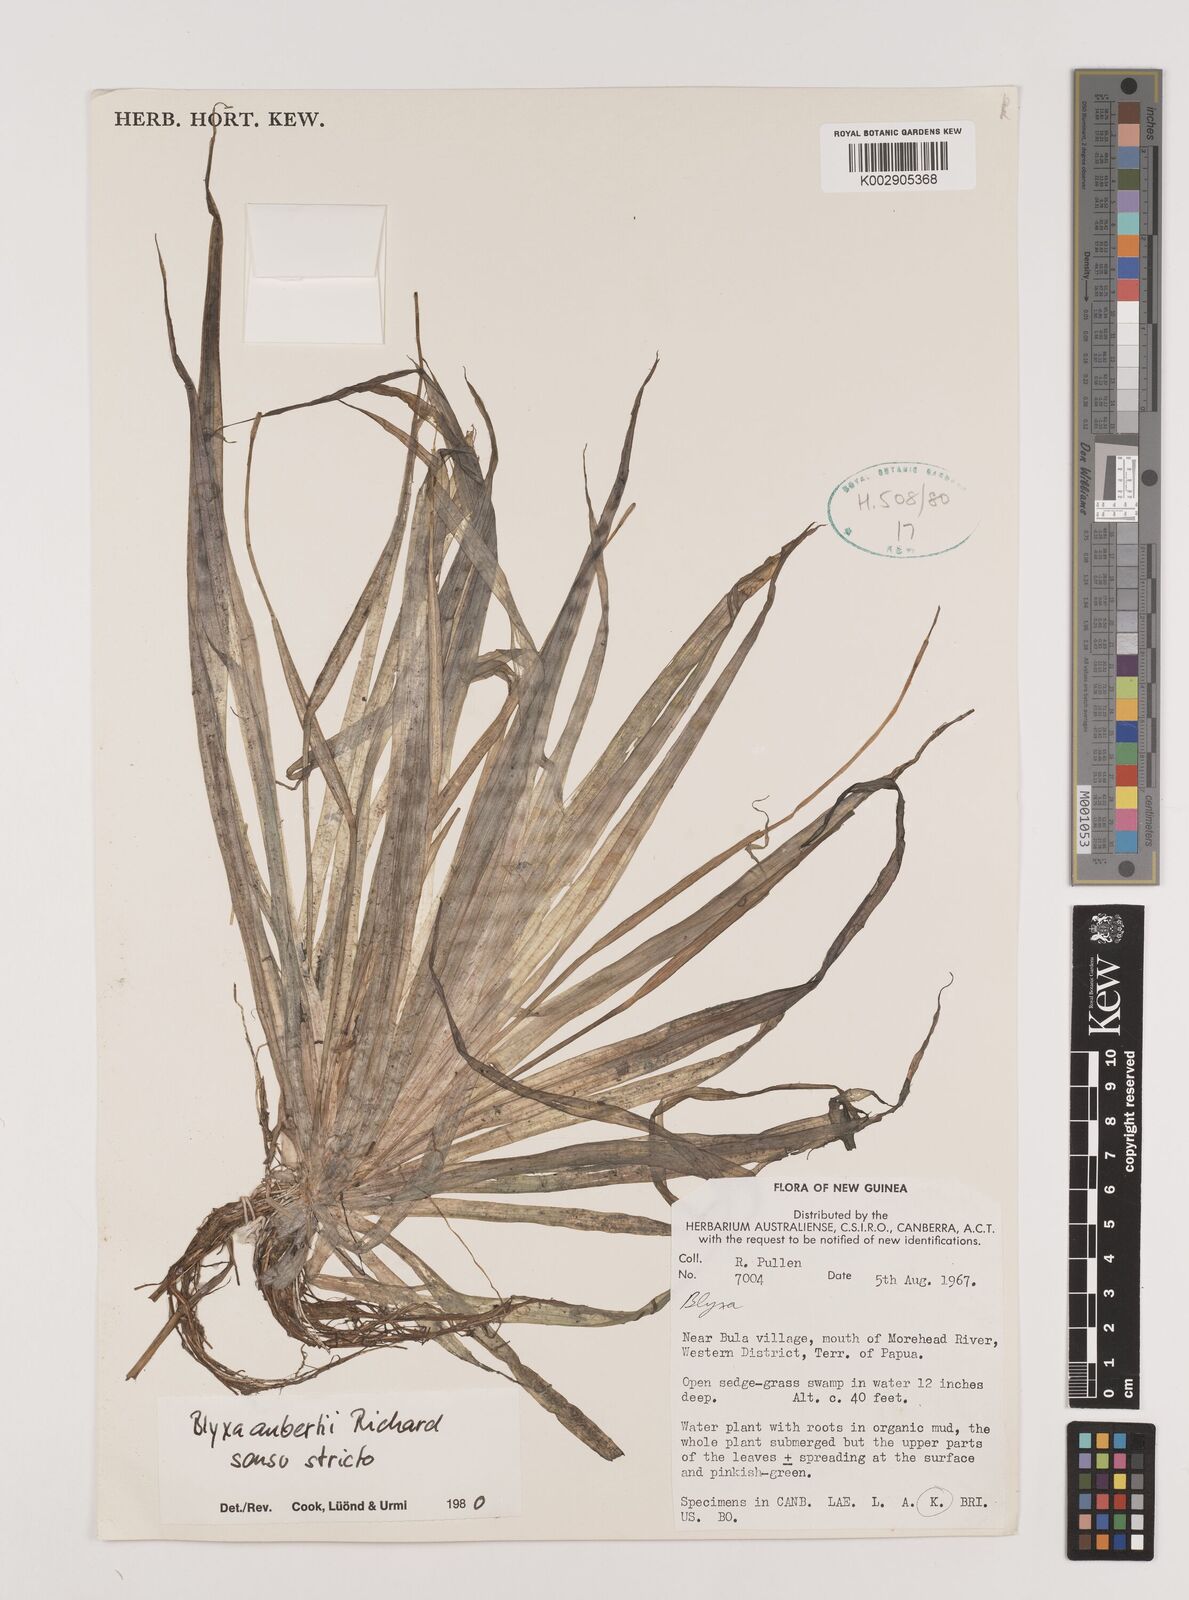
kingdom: Plantae
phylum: Tracheophyta
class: Liliopsida
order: Alismatales
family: Hydrocharitaceae
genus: Blyxa
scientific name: Blyxa aubertii
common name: Roundfruit blyxa
